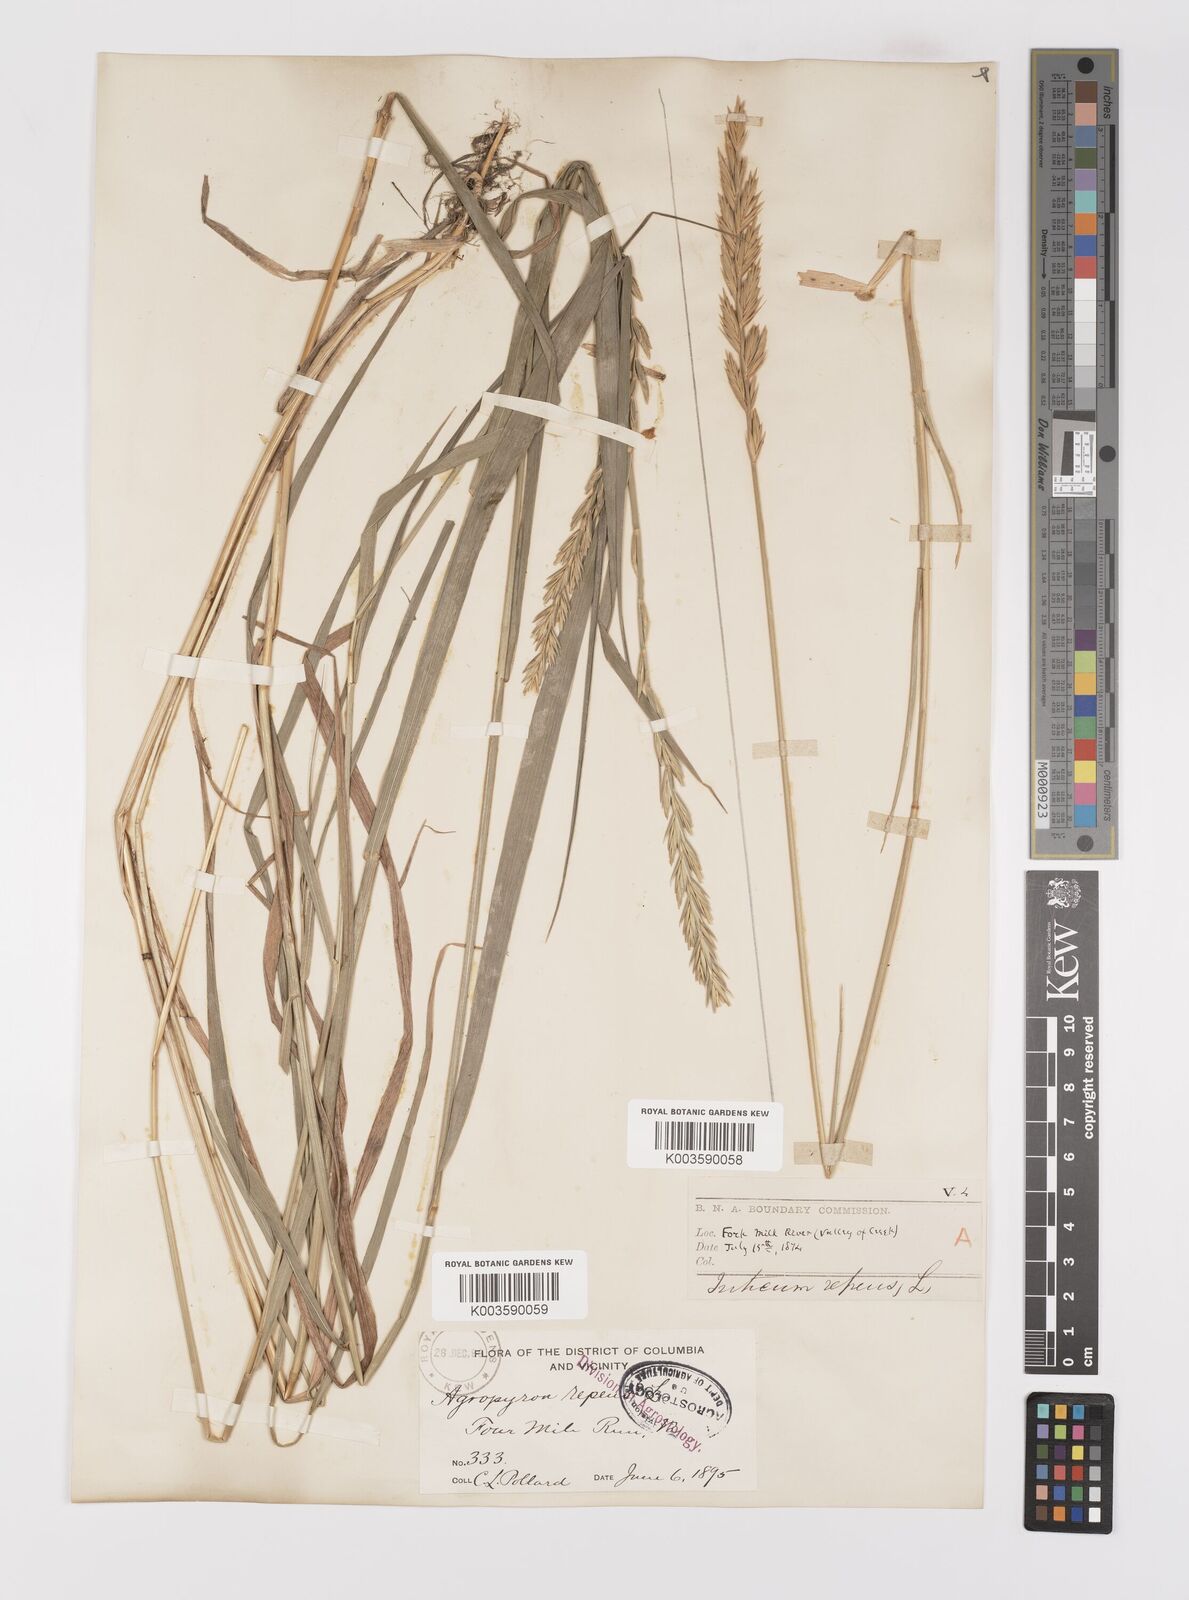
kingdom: Plantae
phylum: Tracheophyta
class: Liliopsida
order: Poales
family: Poaceae
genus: Elymus
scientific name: Elymus repens
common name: Quackgrass
